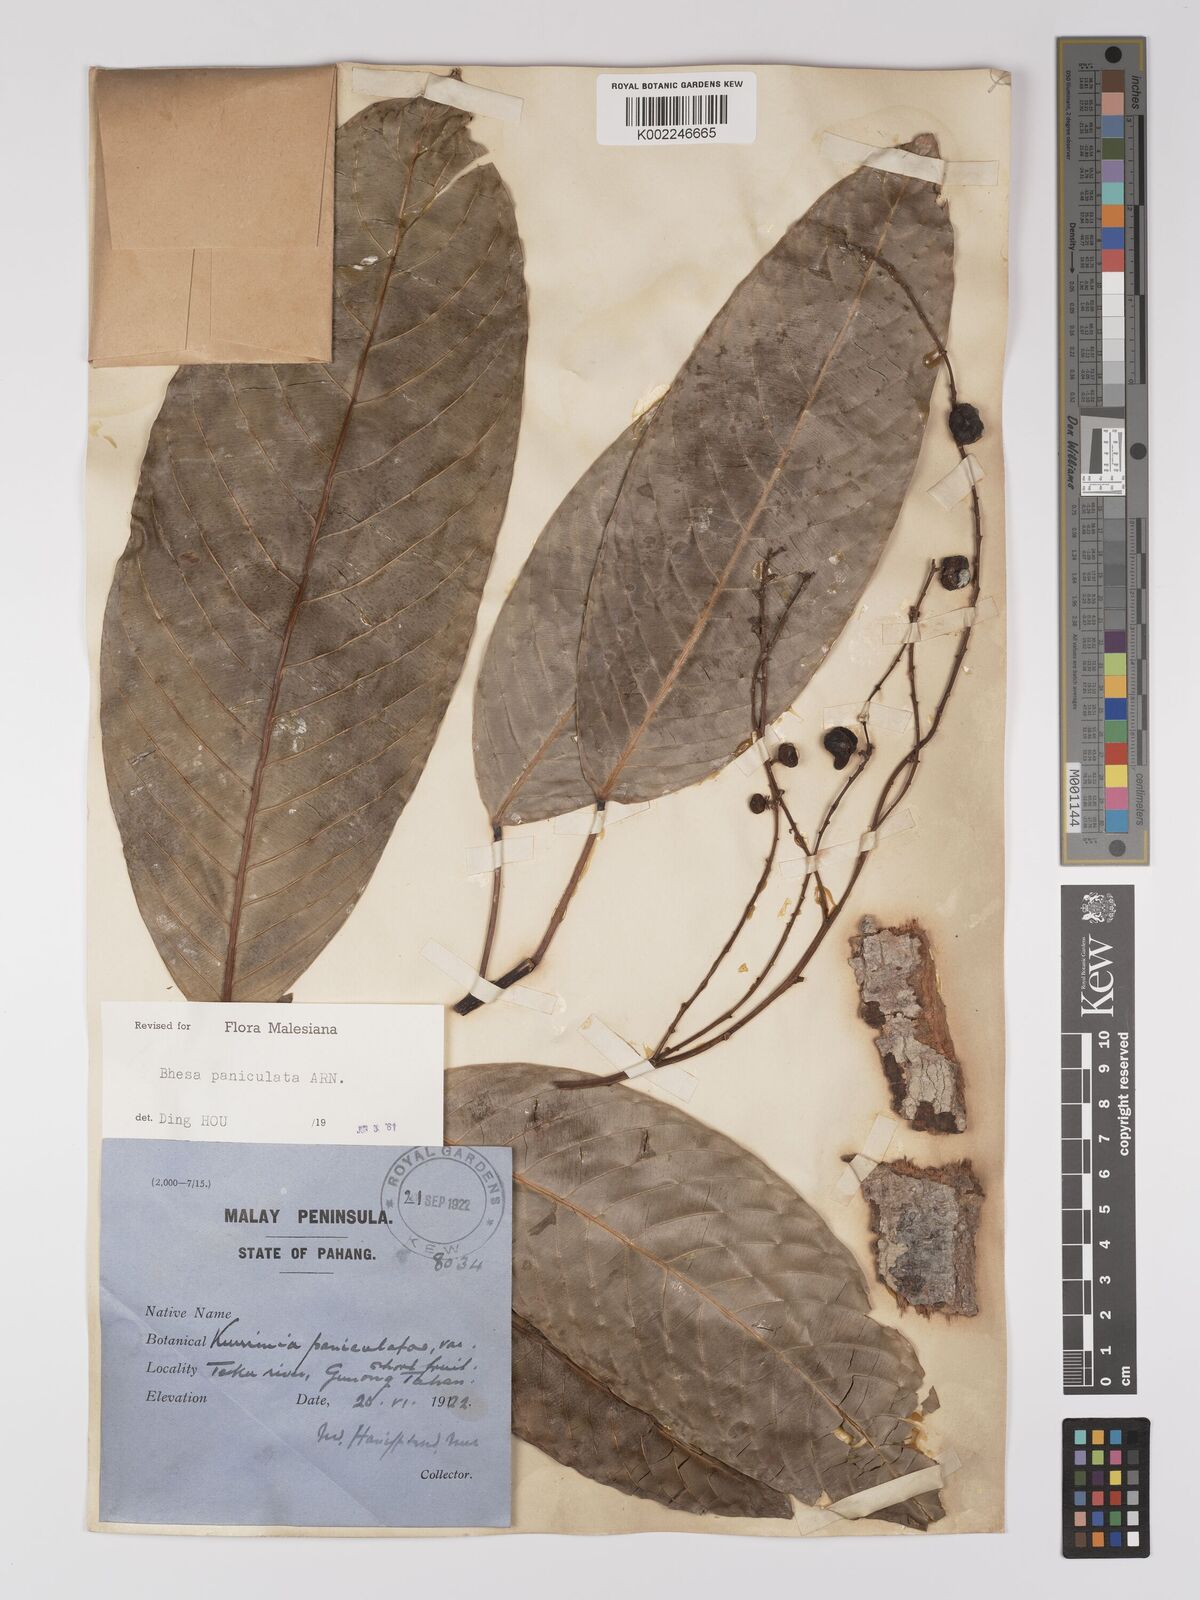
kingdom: Plantae
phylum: Tracheophyta
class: Magnoliopsida
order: Malpighiales
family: Centroplacaceae
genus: Bhesa
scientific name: Bhesa paniculata
